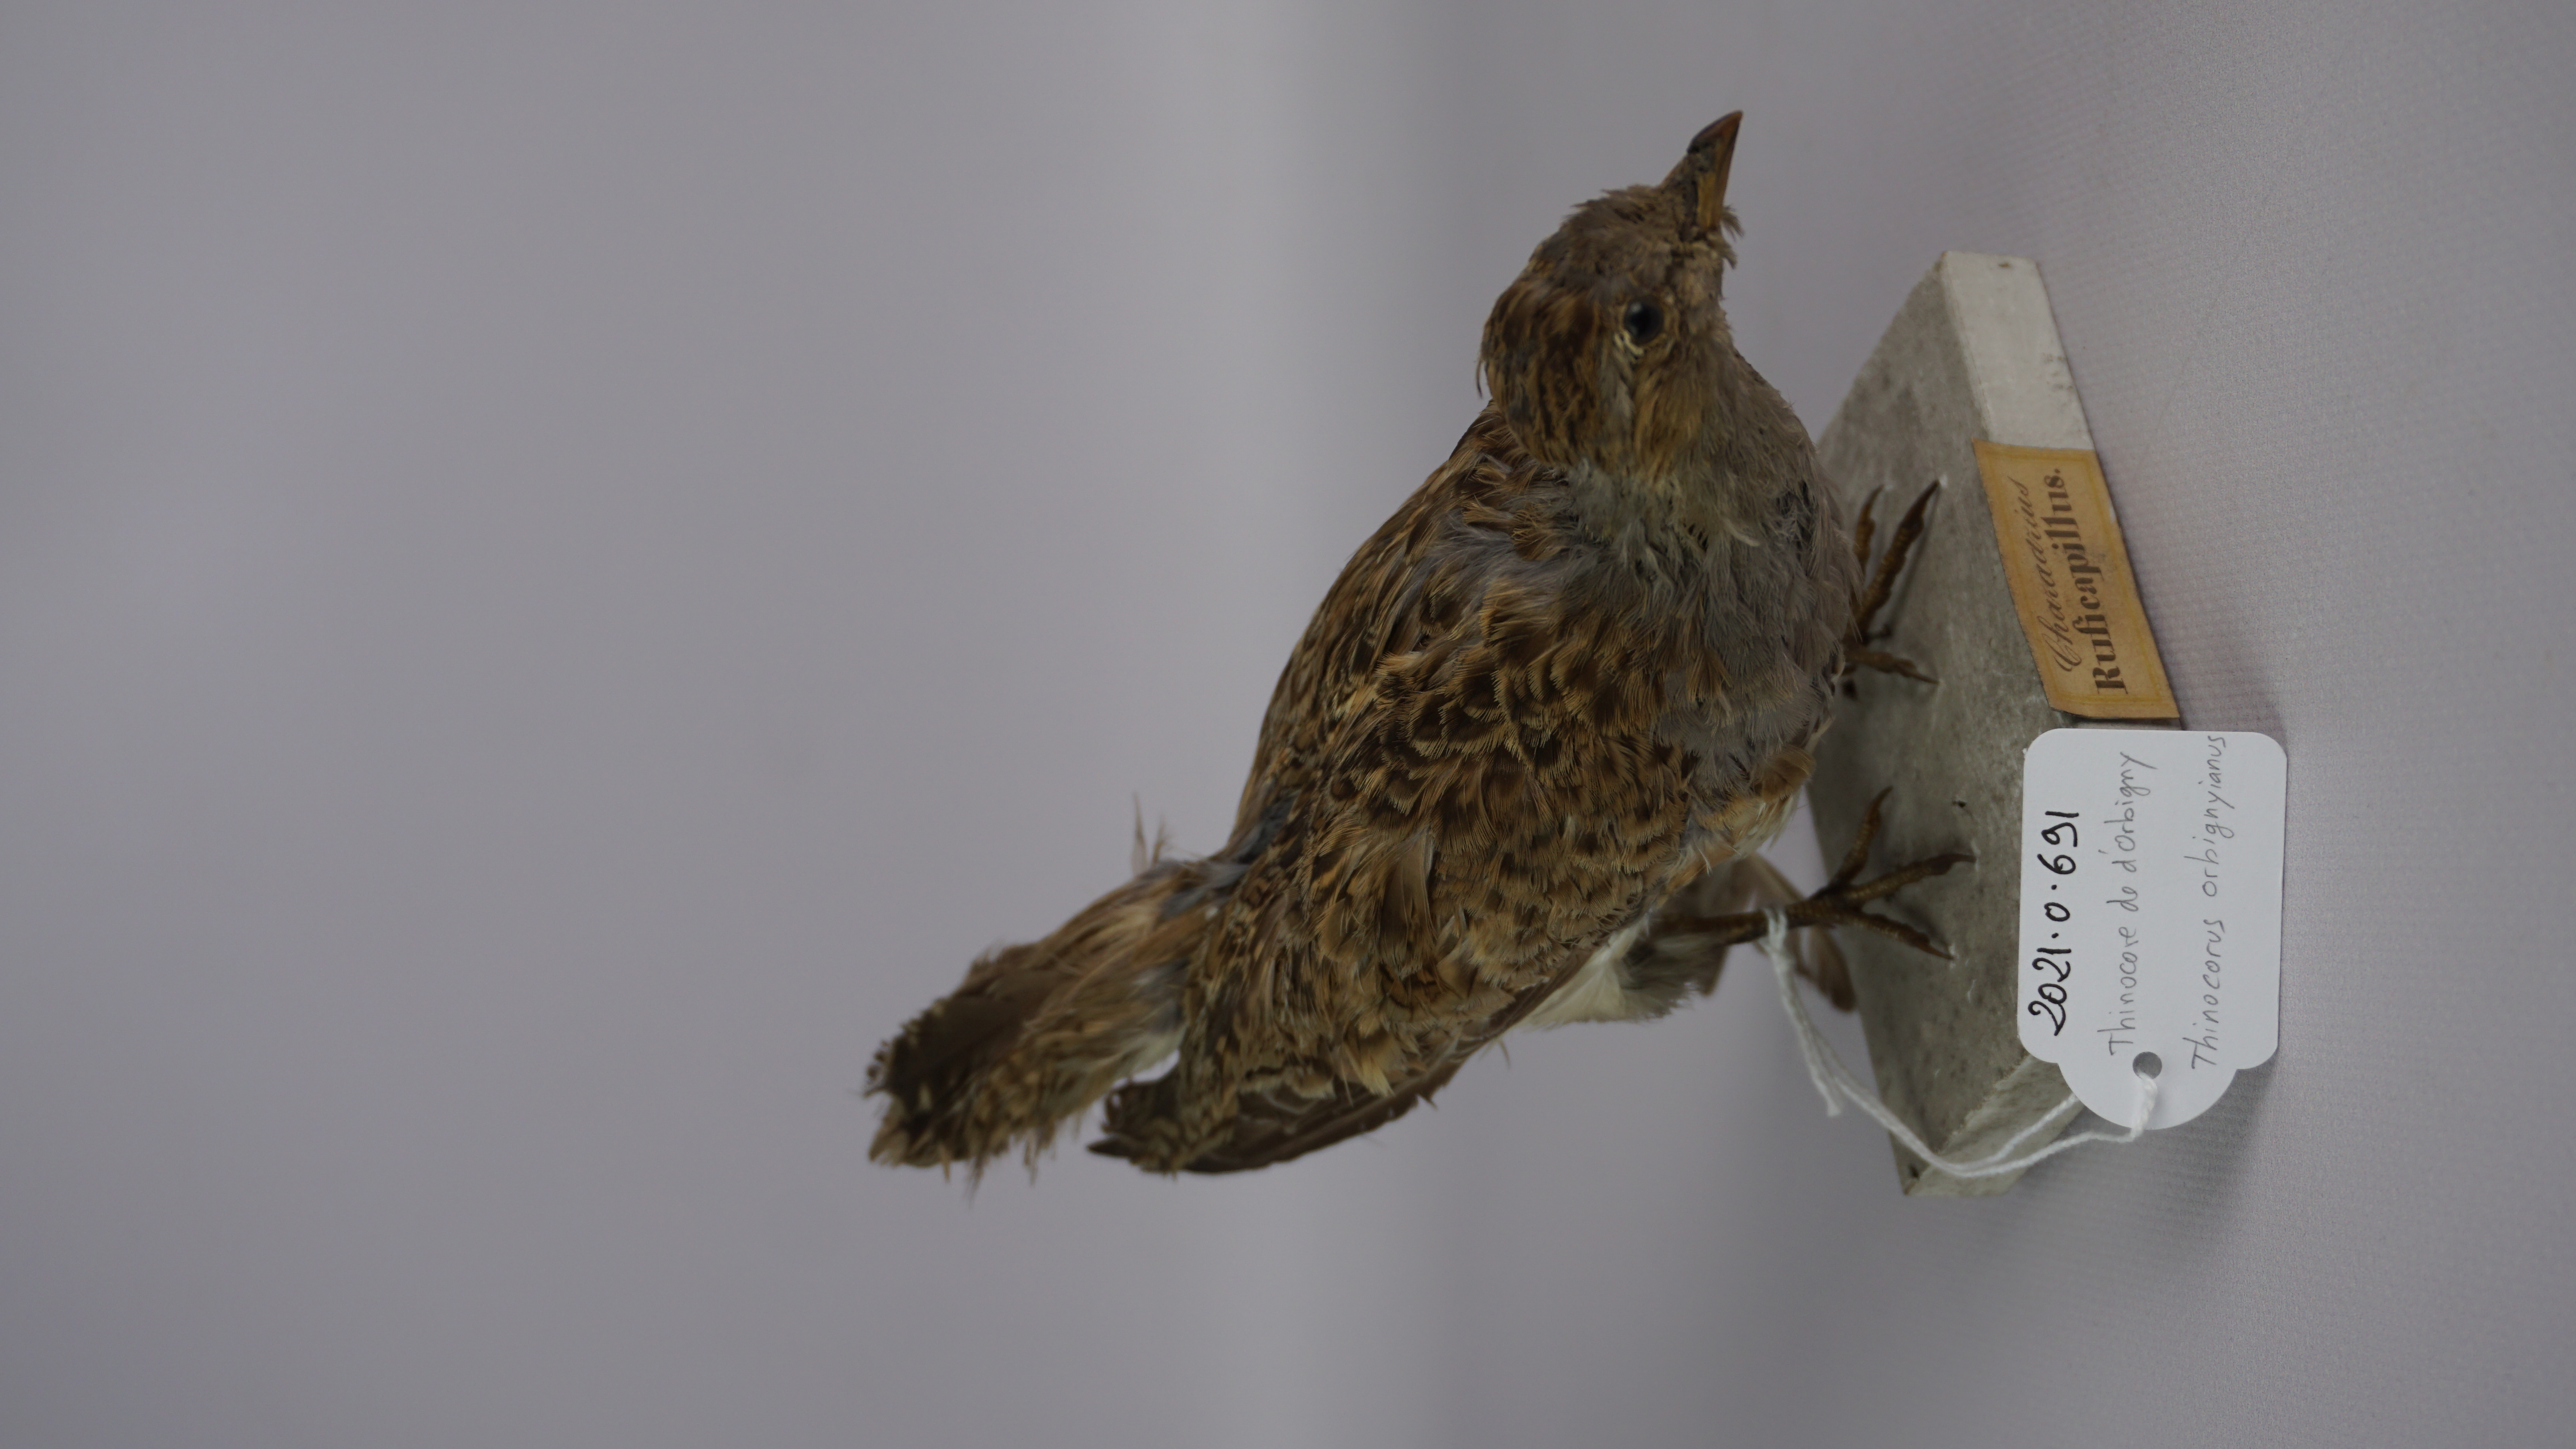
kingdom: Animalia
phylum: Chordata
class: Aves
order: Charadriiformes
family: Thinocoridae
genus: Thinocorus
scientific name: Thinocorus orbignyianus
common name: Grey-breasted seedsnipe
